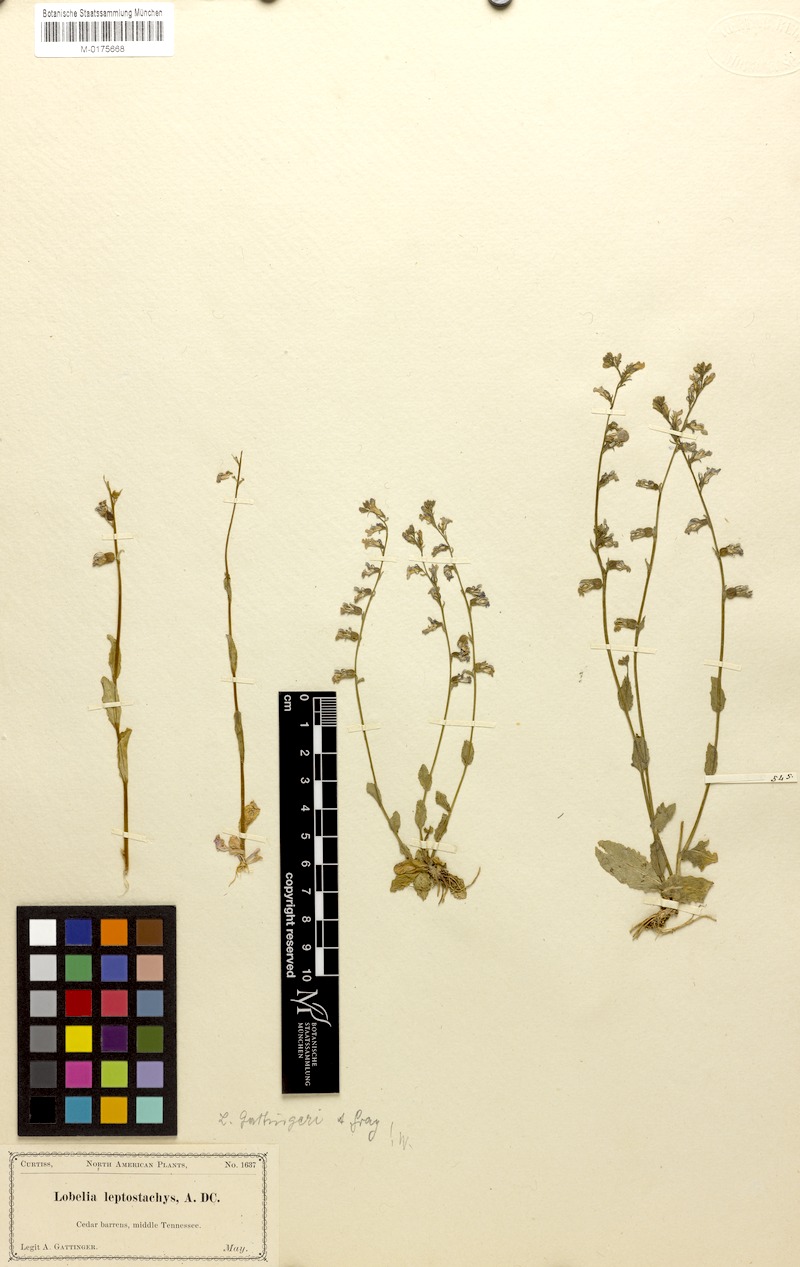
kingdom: Plantae
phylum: Tracheophyta
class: Magnoliopsida
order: Asterales
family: Campanulaceae
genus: Lobelia
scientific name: Lobelia gattingeri
